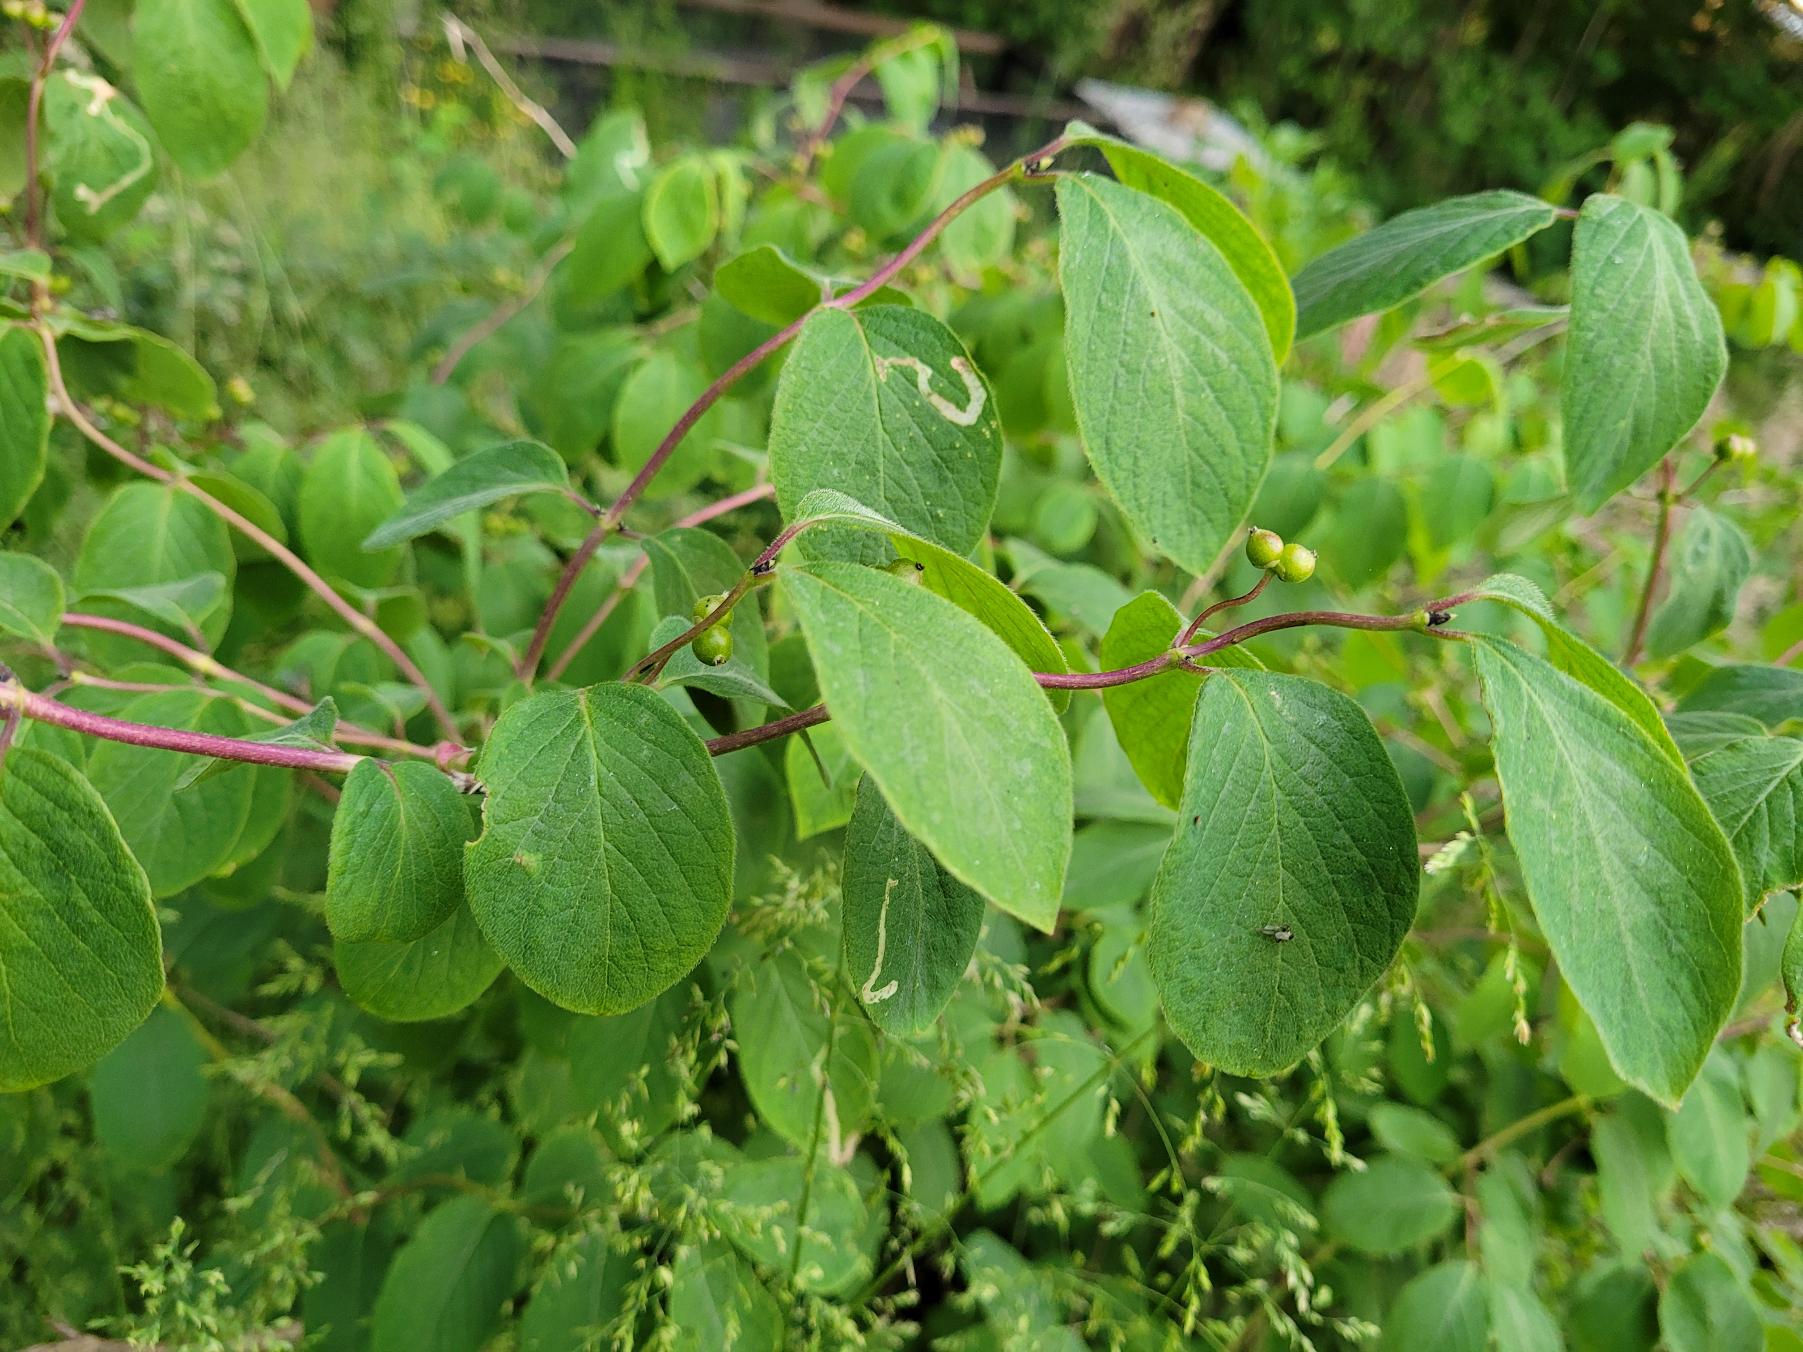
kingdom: Plantae
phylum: Tracheophyta
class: Magnoliopsida
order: Dipsacales
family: Caprifoliaceae
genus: Lonicera
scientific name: Lonicera xylosteum
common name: Dunet gedeblad
